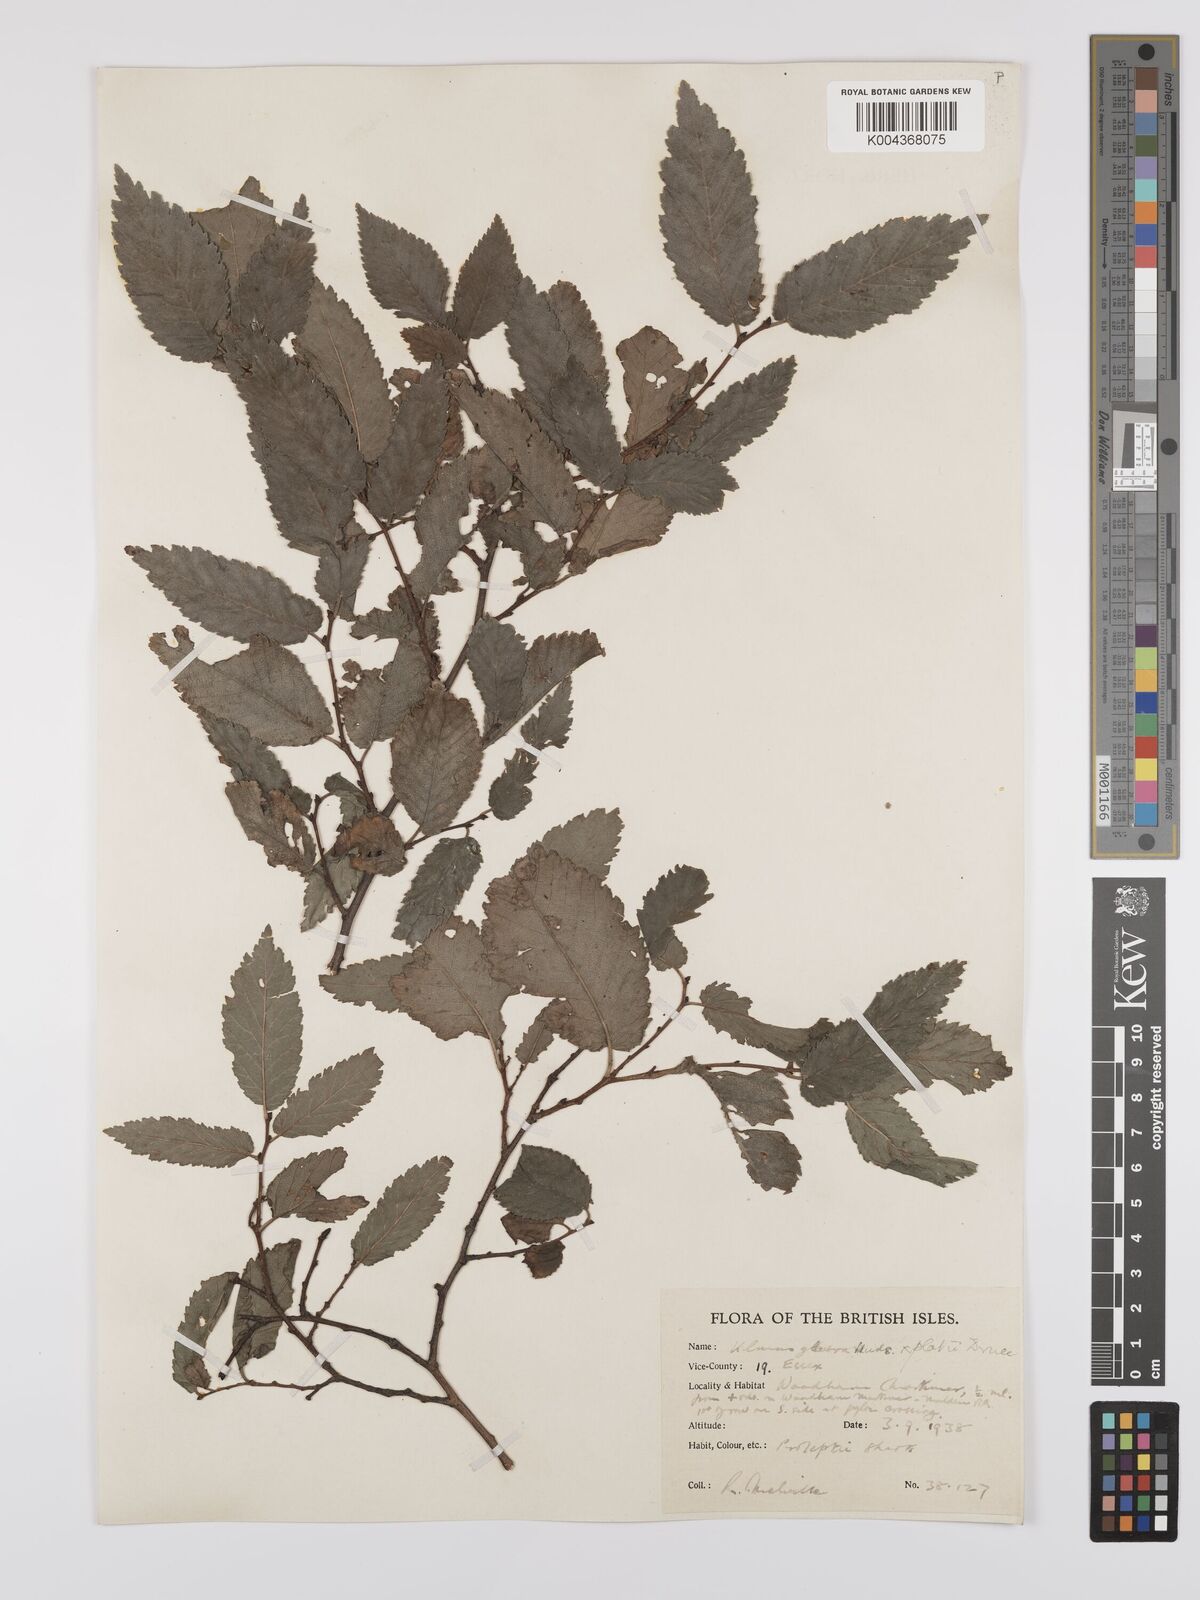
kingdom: Plantae
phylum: Tracheophyta
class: Magnoliopsida
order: Rosales
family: Ulmaceae
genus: Ulmus
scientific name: Ulmus
